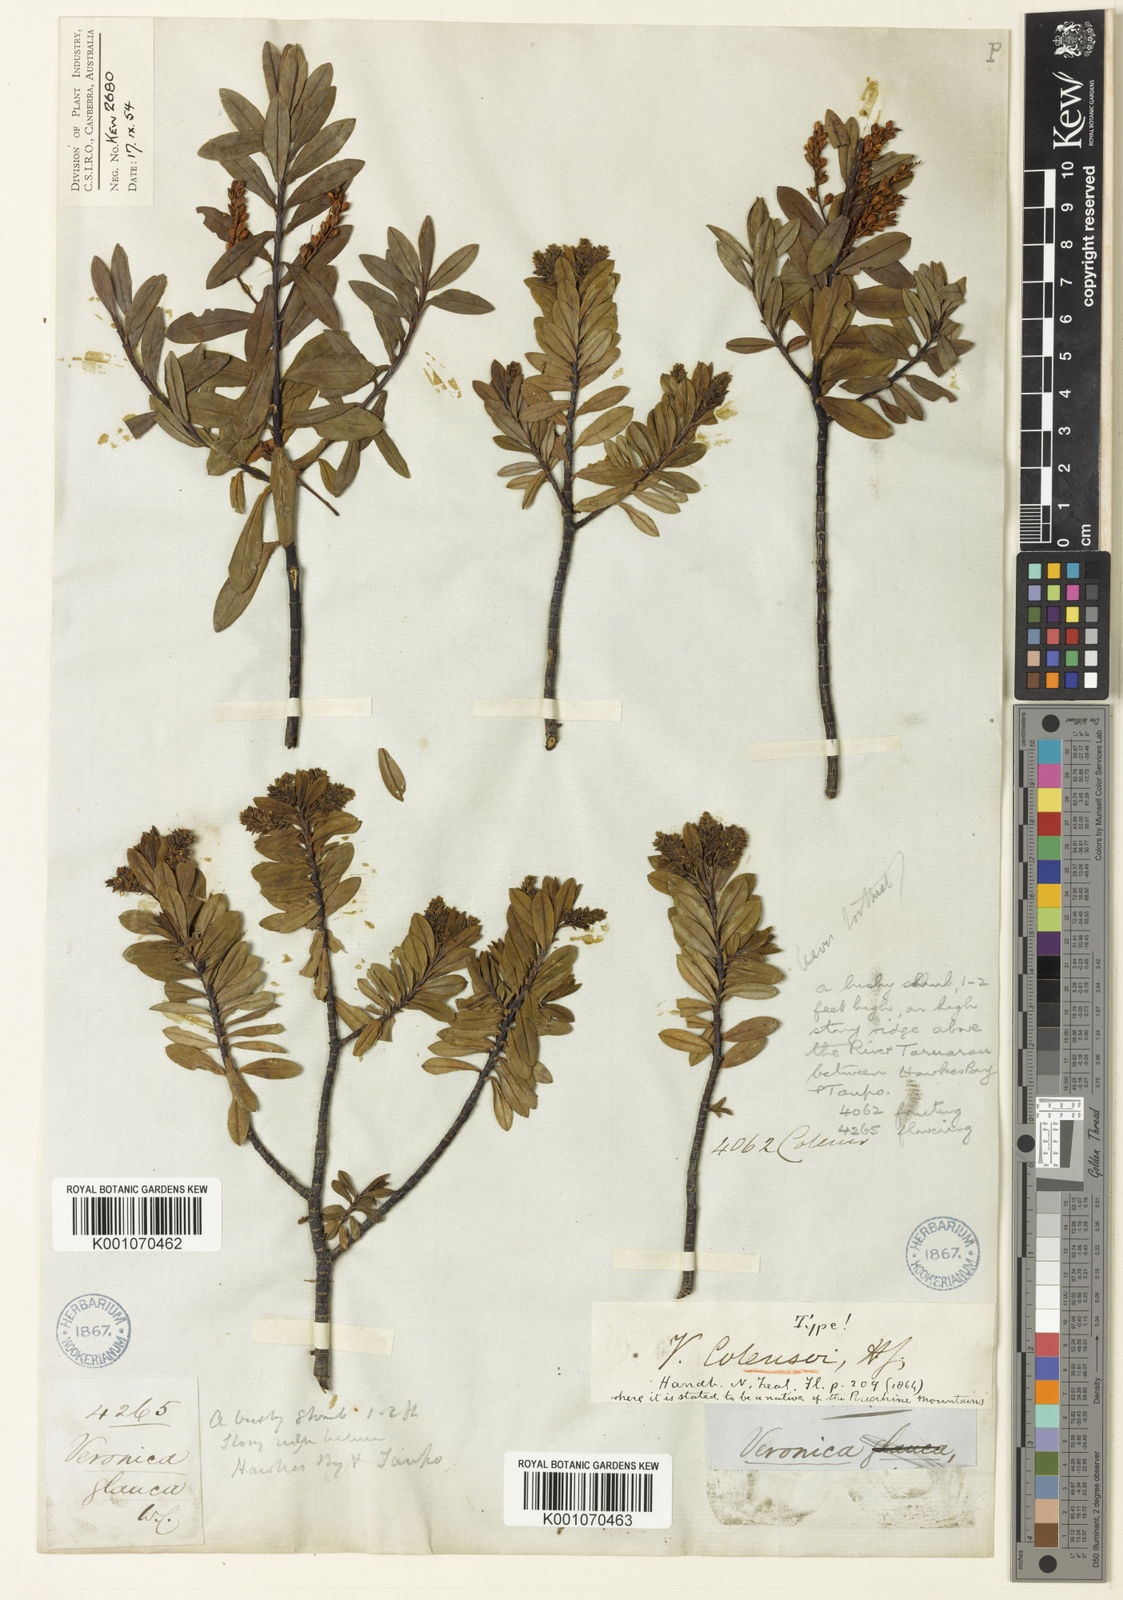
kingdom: Plantae
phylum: Tracheophyta
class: Magnoliopsida
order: Lamiales
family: Plantaginaceae
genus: Veronica
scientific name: Veronica
